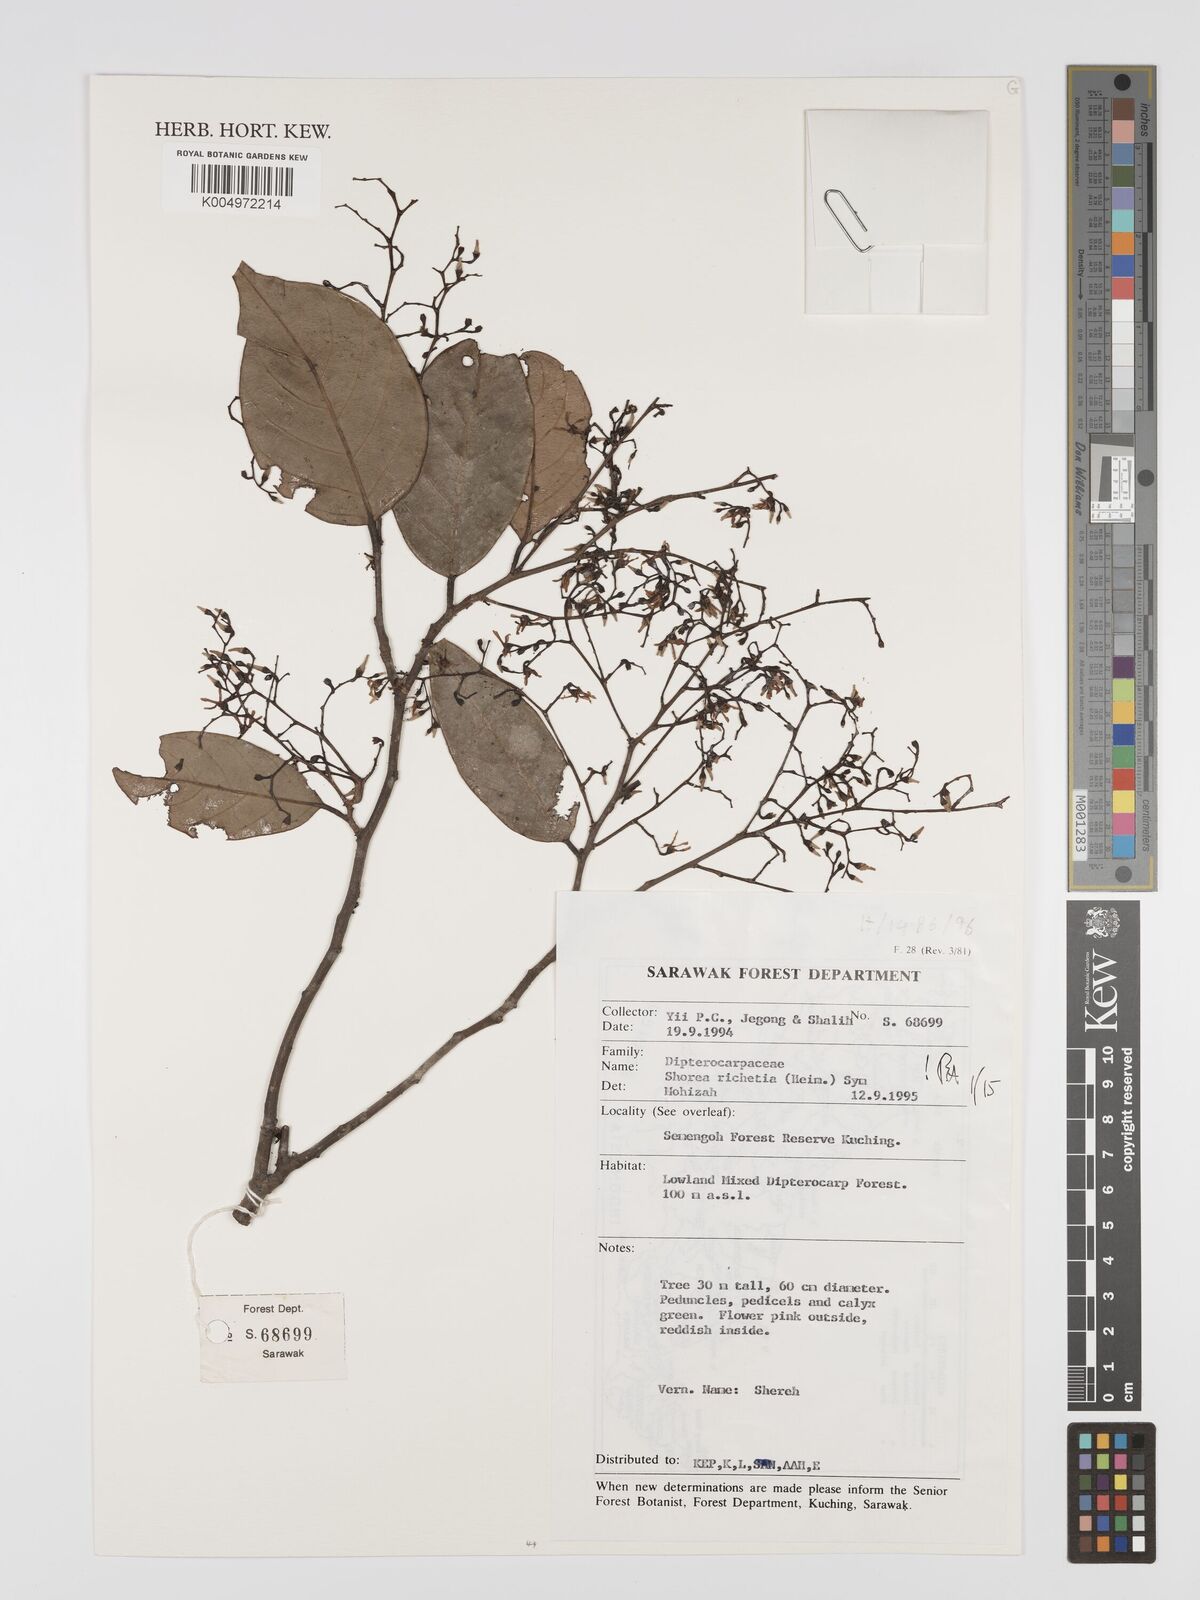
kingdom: Plantae
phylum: Tracheophyta
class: Magnoliopsida
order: Malvales
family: Dipterocarpaceae
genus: Shorea
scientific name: Shorea richetia
